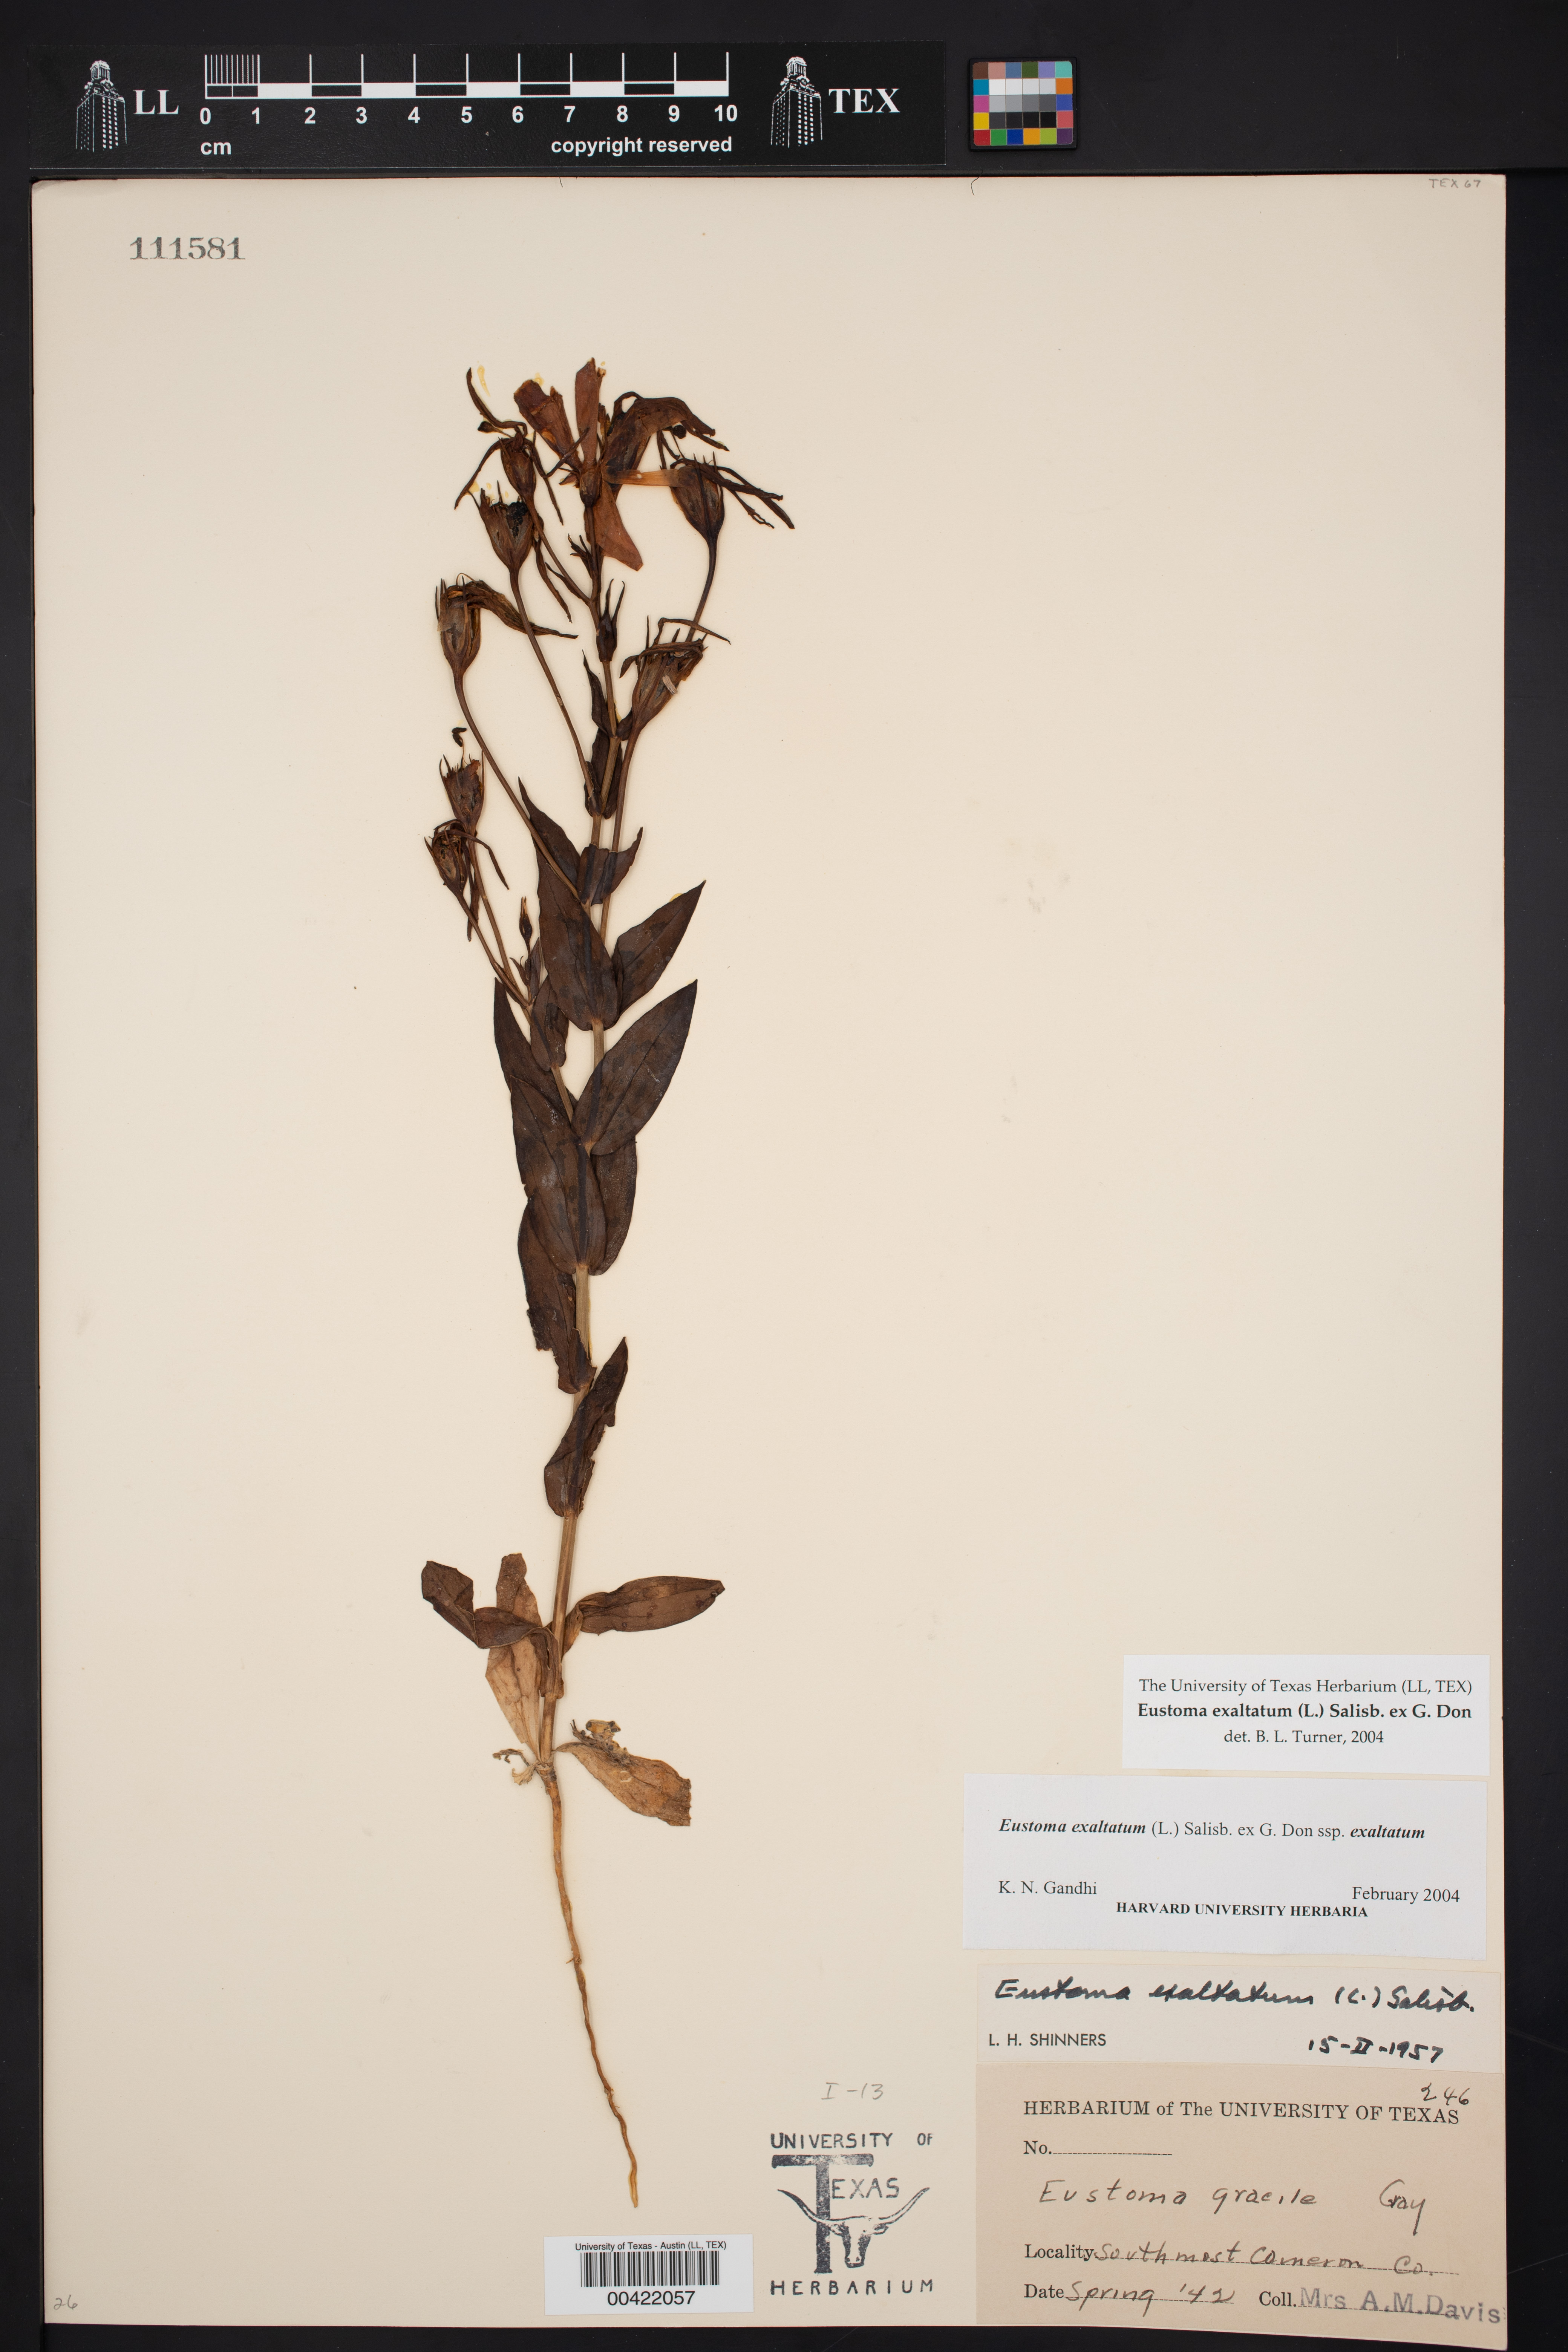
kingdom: Plantae
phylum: Tracheophyta
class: Magnoliopsida
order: Gentianales
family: Gentianaceae
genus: Eustoma
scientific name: Eustoma exaltatum
